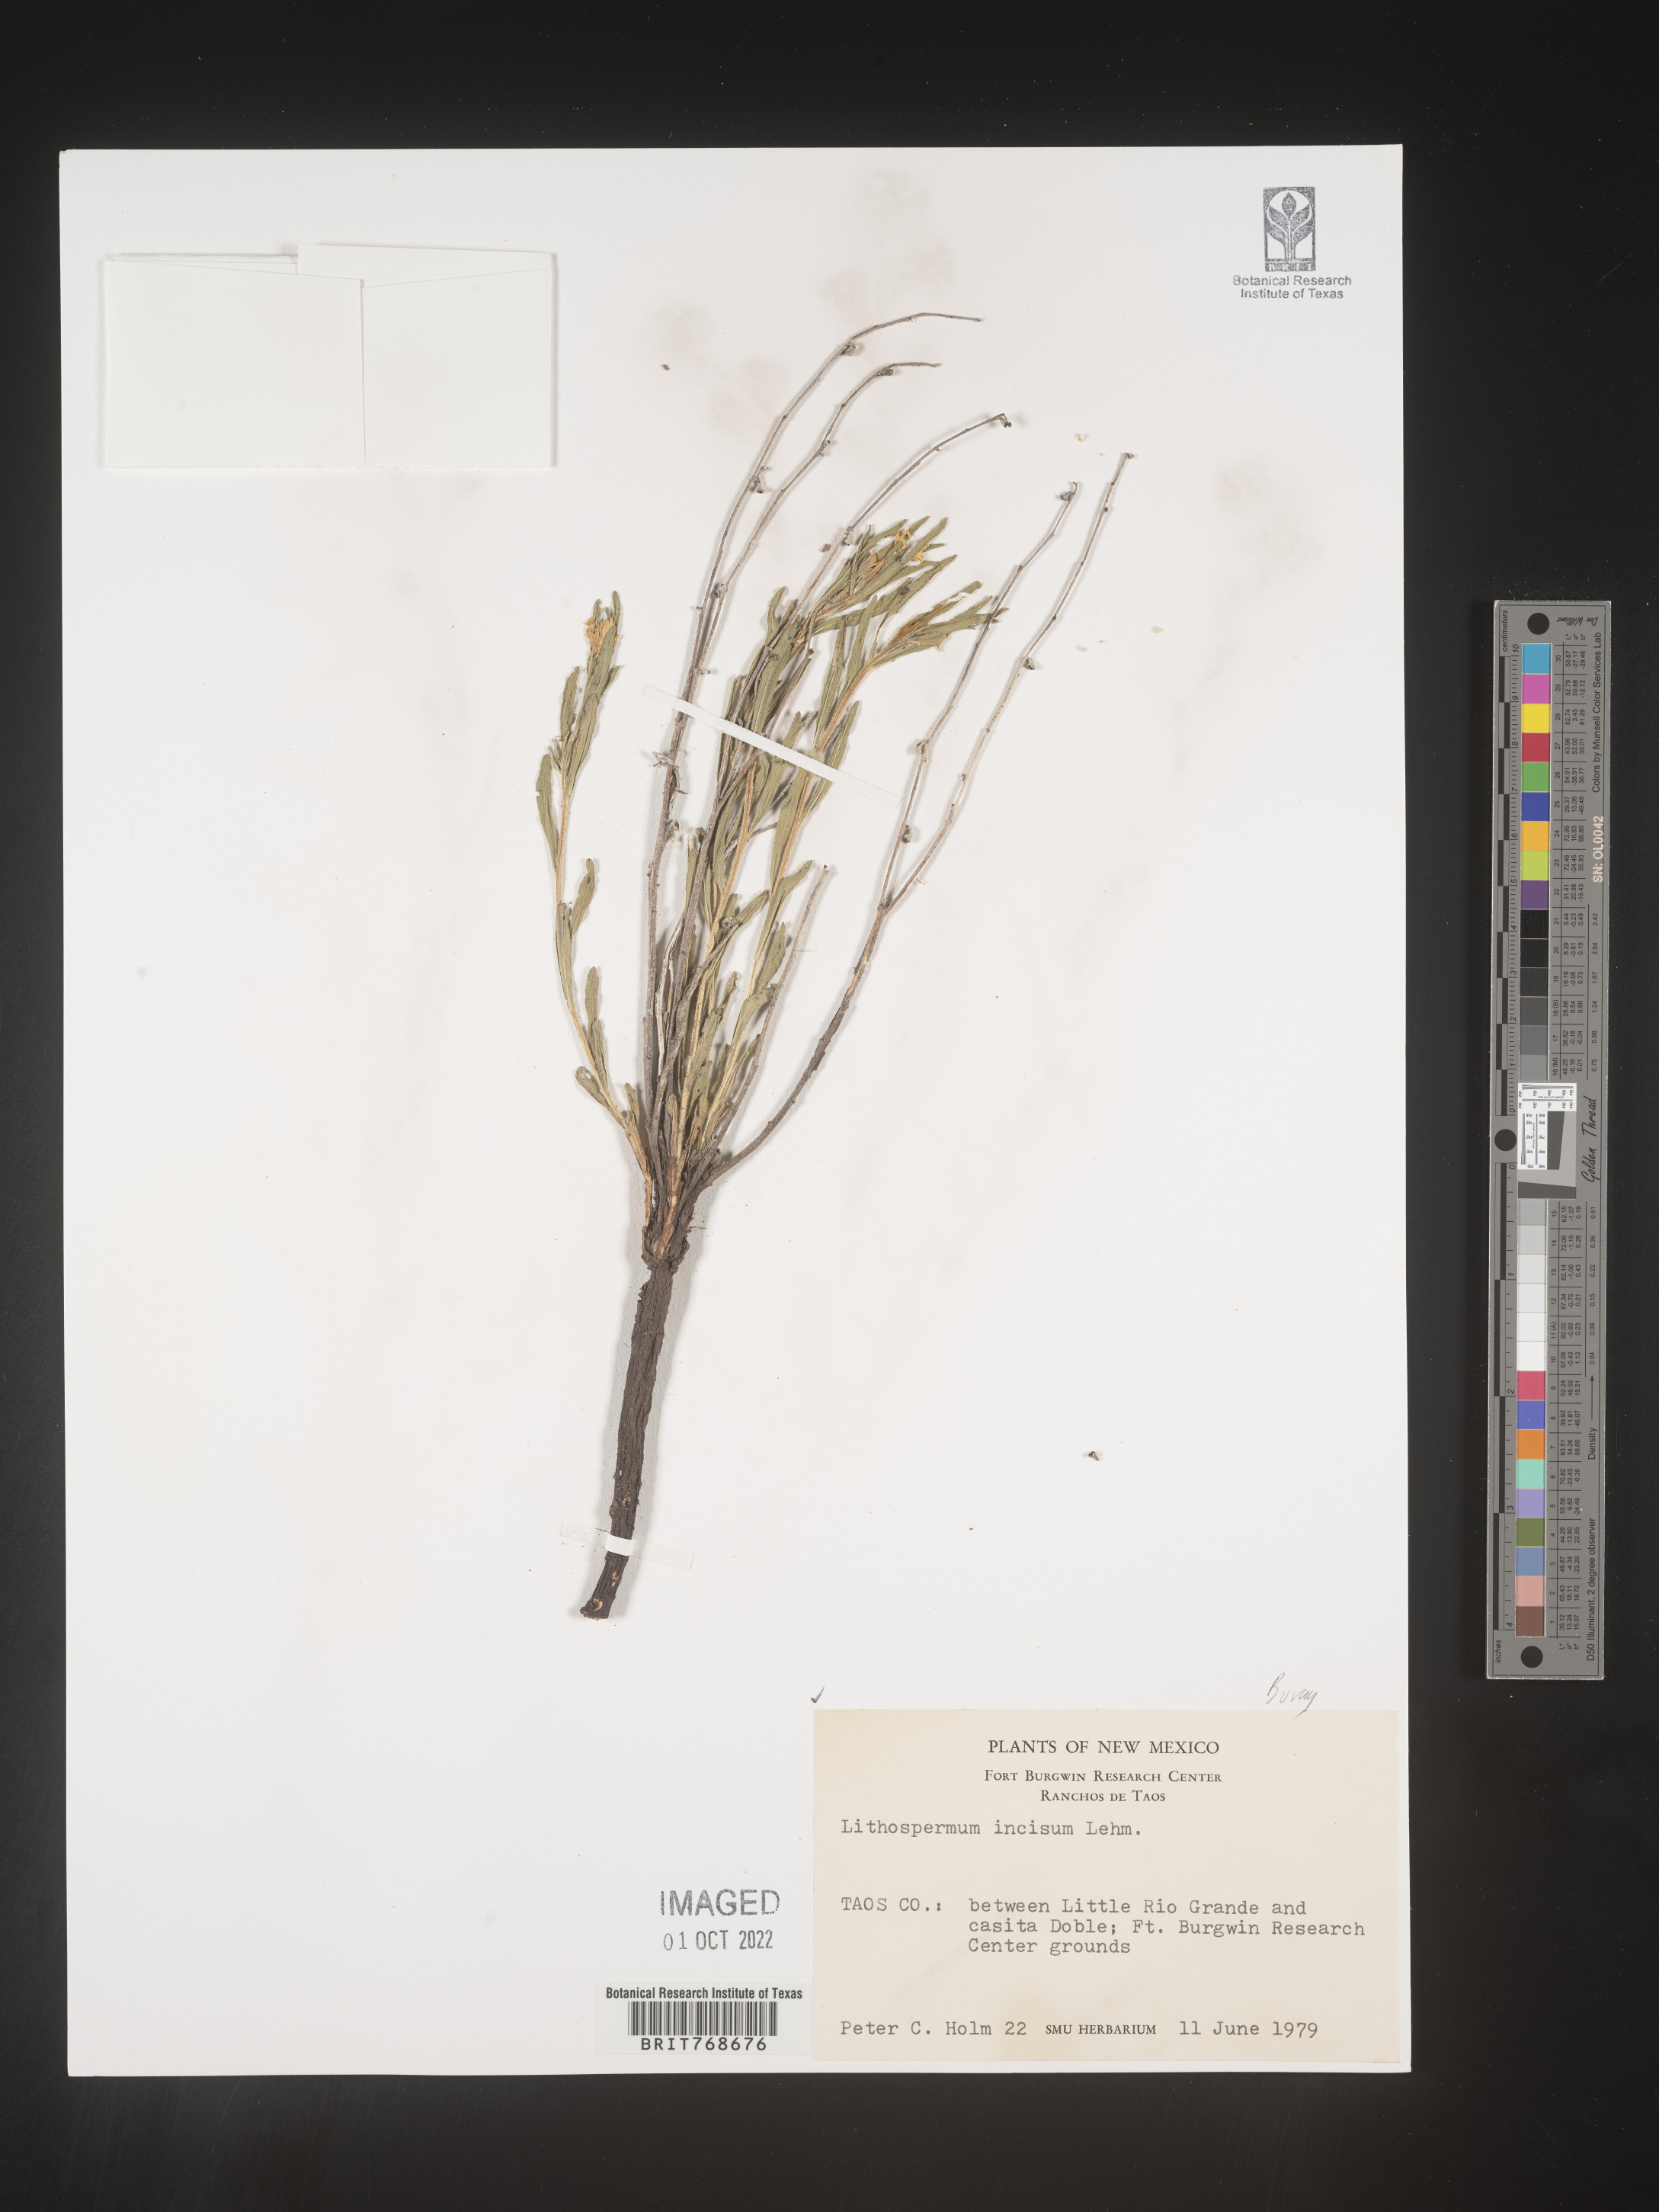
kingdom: Plantae
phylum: Tracheophyta
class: Magnoliopsida
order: Boraginales
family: Boraginaceae
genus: Lithospermum
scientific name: Lithospermum incisum
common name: Fringed gromwell
